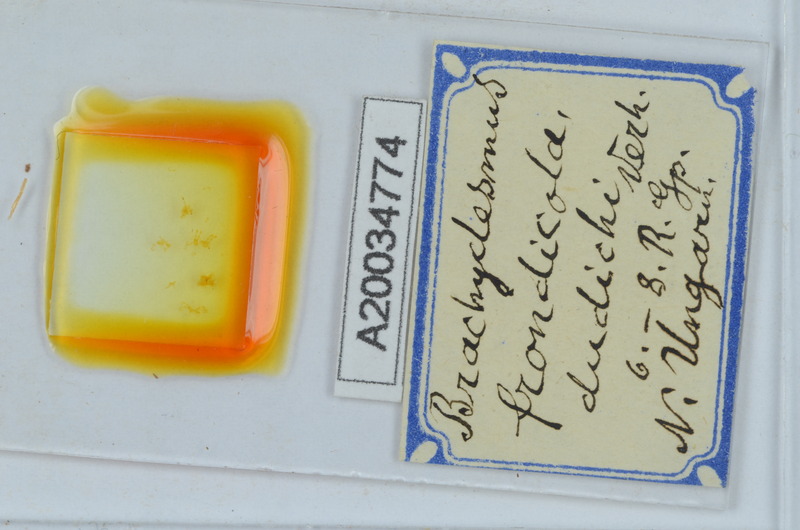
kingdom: Animalia
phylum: Arthropoda
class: Diplopoda
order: Polydesmida
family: Polydesmidae
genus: Brachydesmus
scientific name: Brachydesmus frondicola
